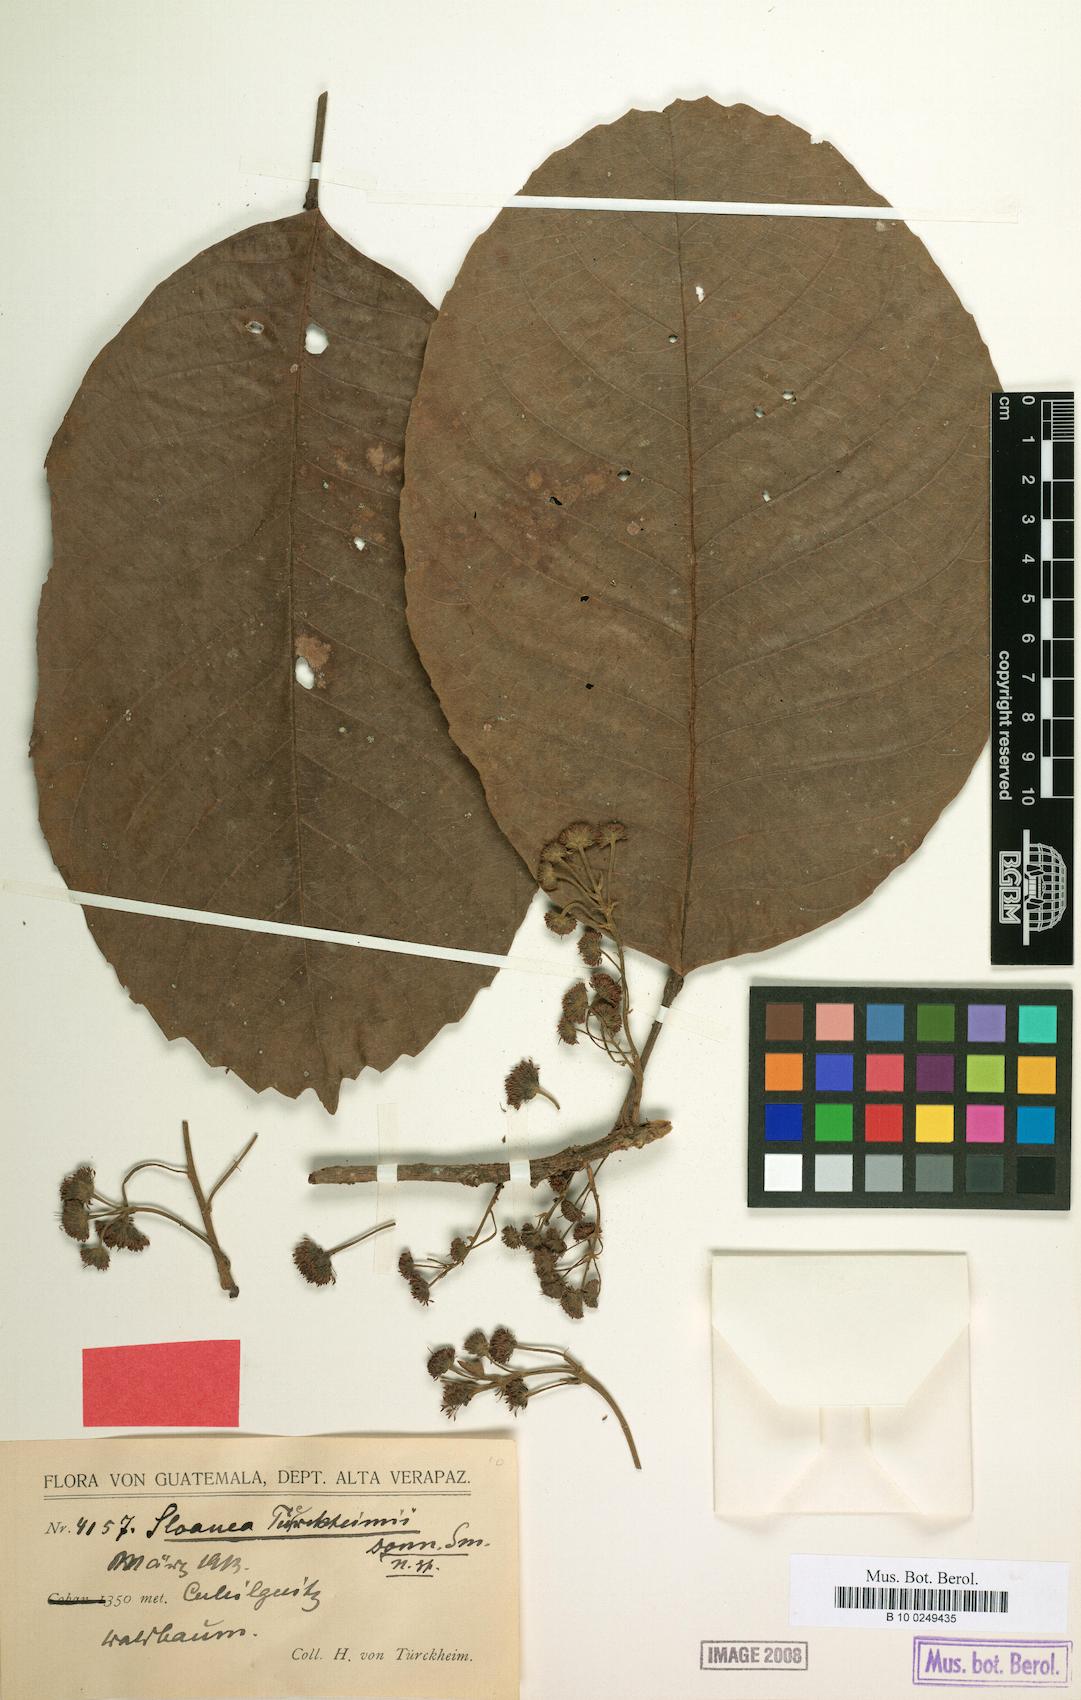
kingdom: Plantae
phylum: Tracheophyta
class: Magnoliopsida
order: Oxalidales
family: Elaeocarpaceae
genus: Sloanea
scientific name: Sloanea tuerckheimii
